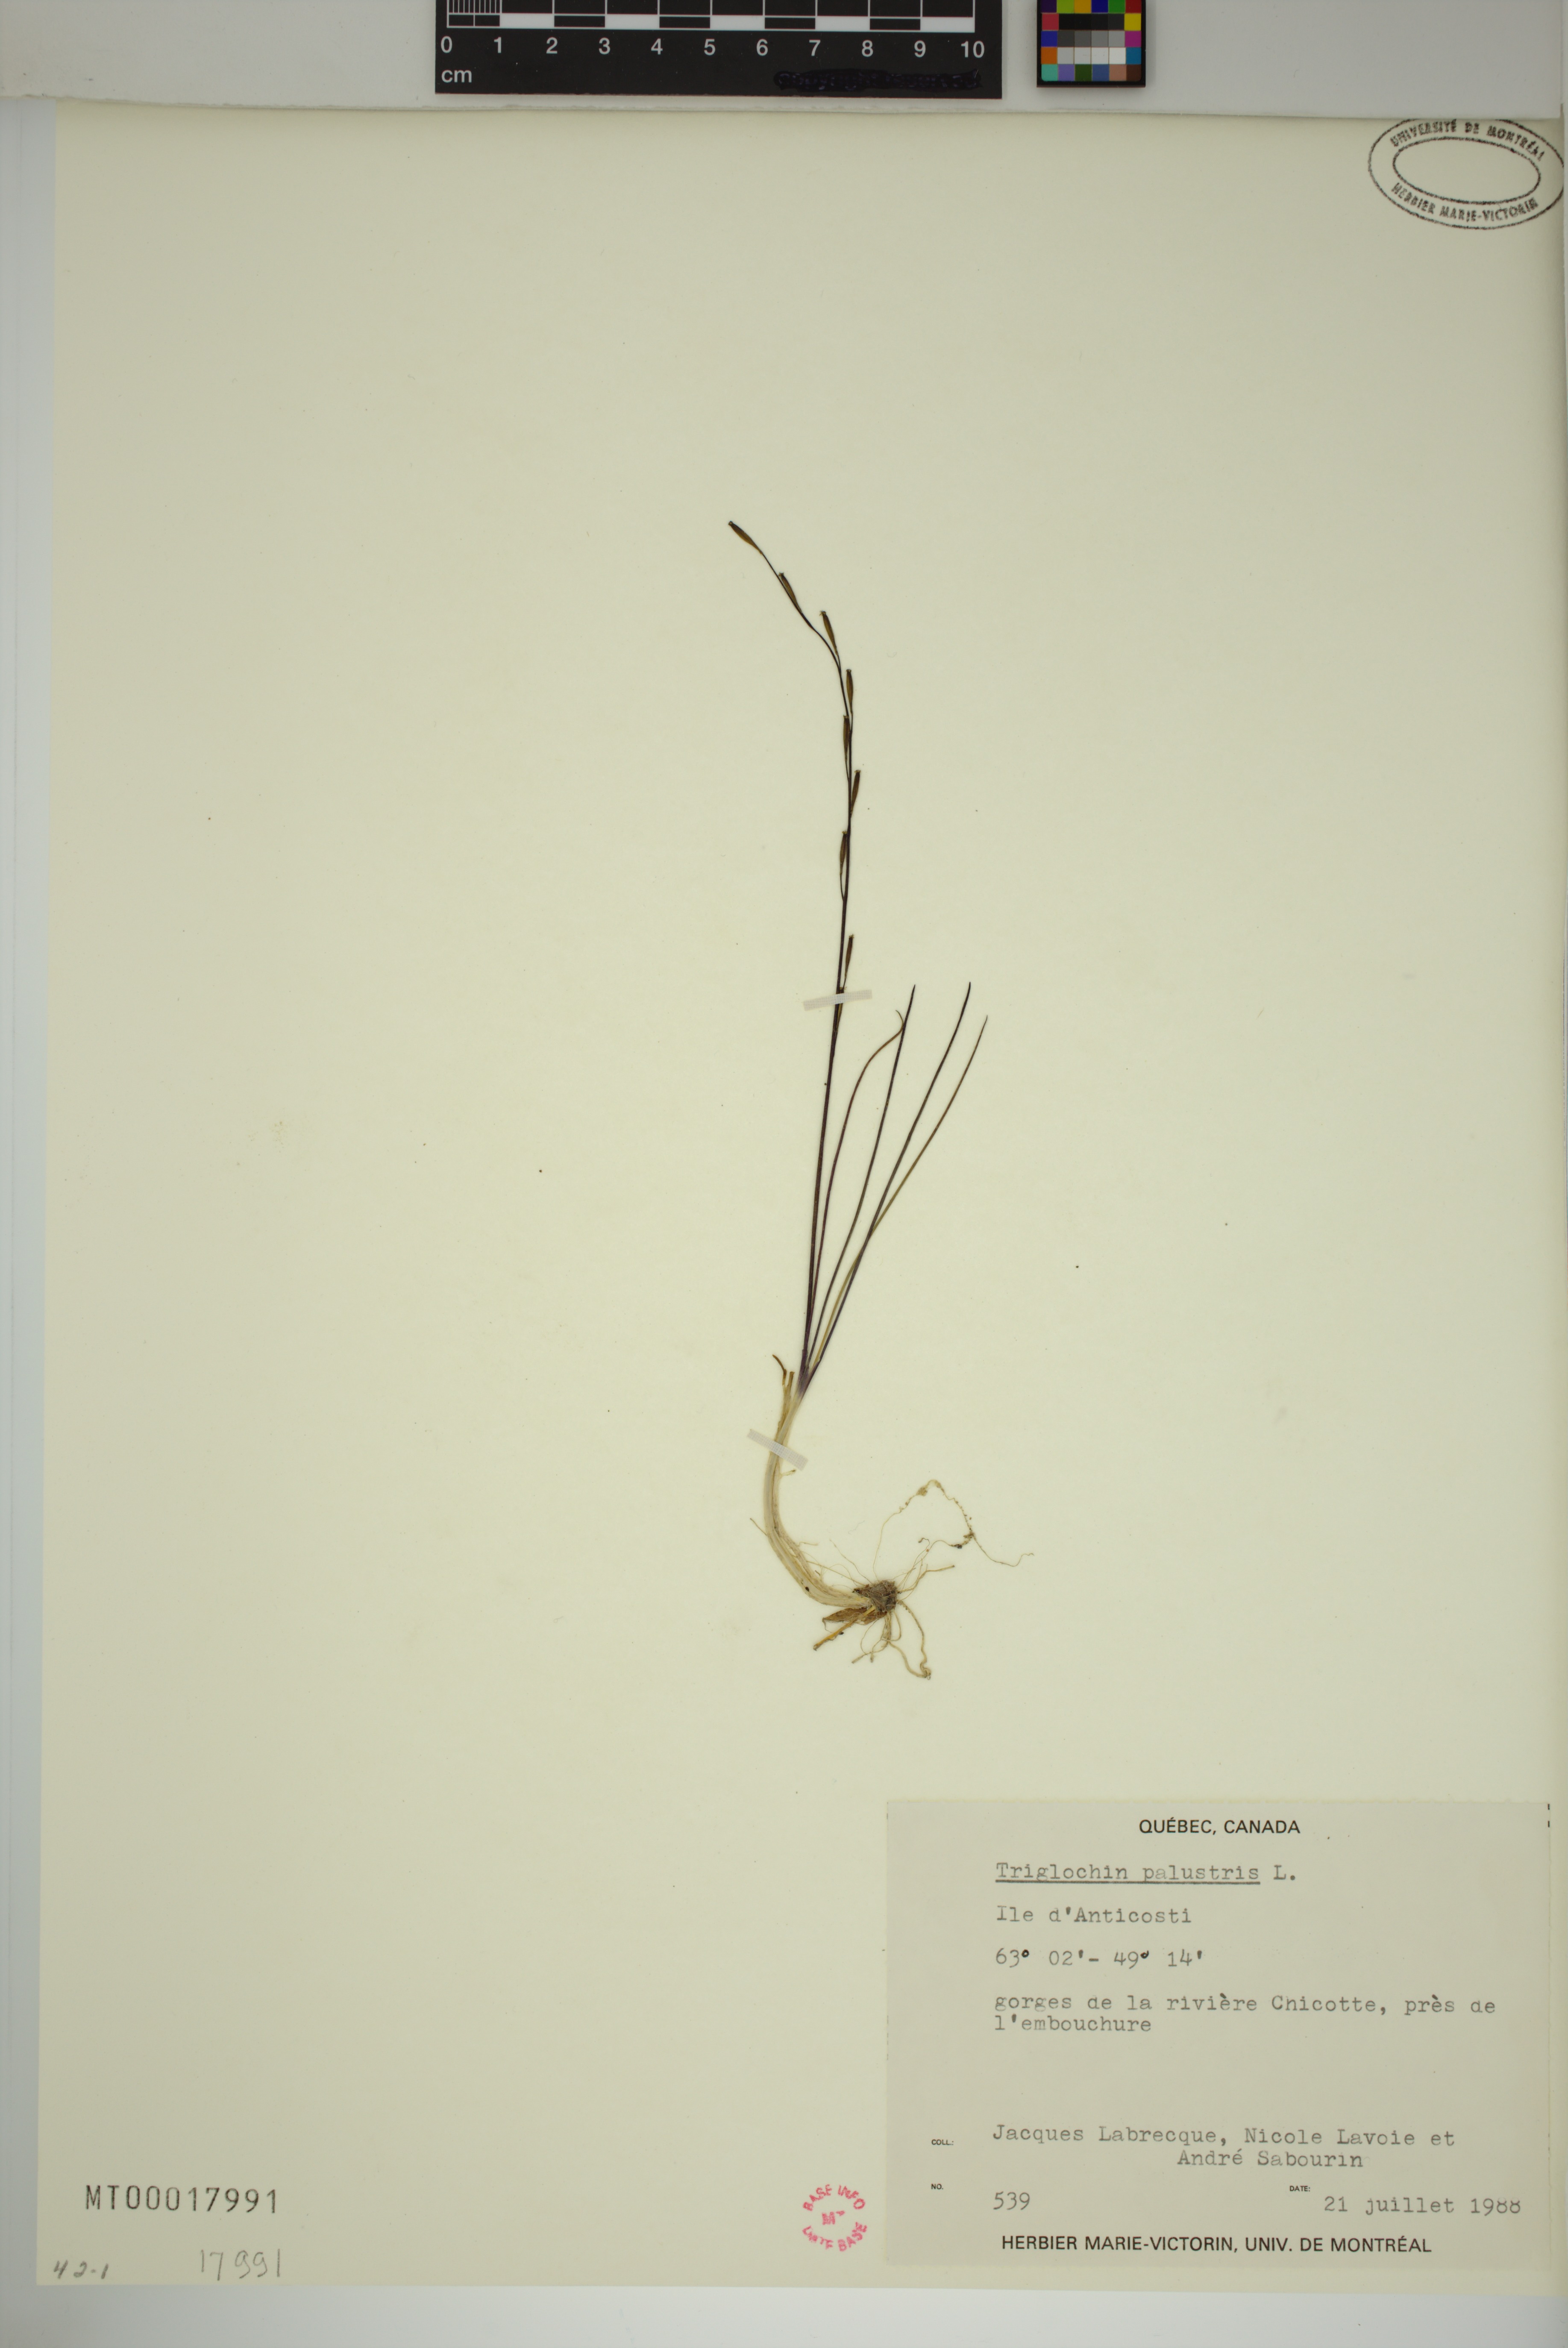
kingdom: Plantae
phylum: Tracheophyta
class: Liliopsida
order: Alismatales
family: Juncaginaceae
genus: Triglochin
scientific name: Triglochin palustris
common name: Marsh arrowgrass
